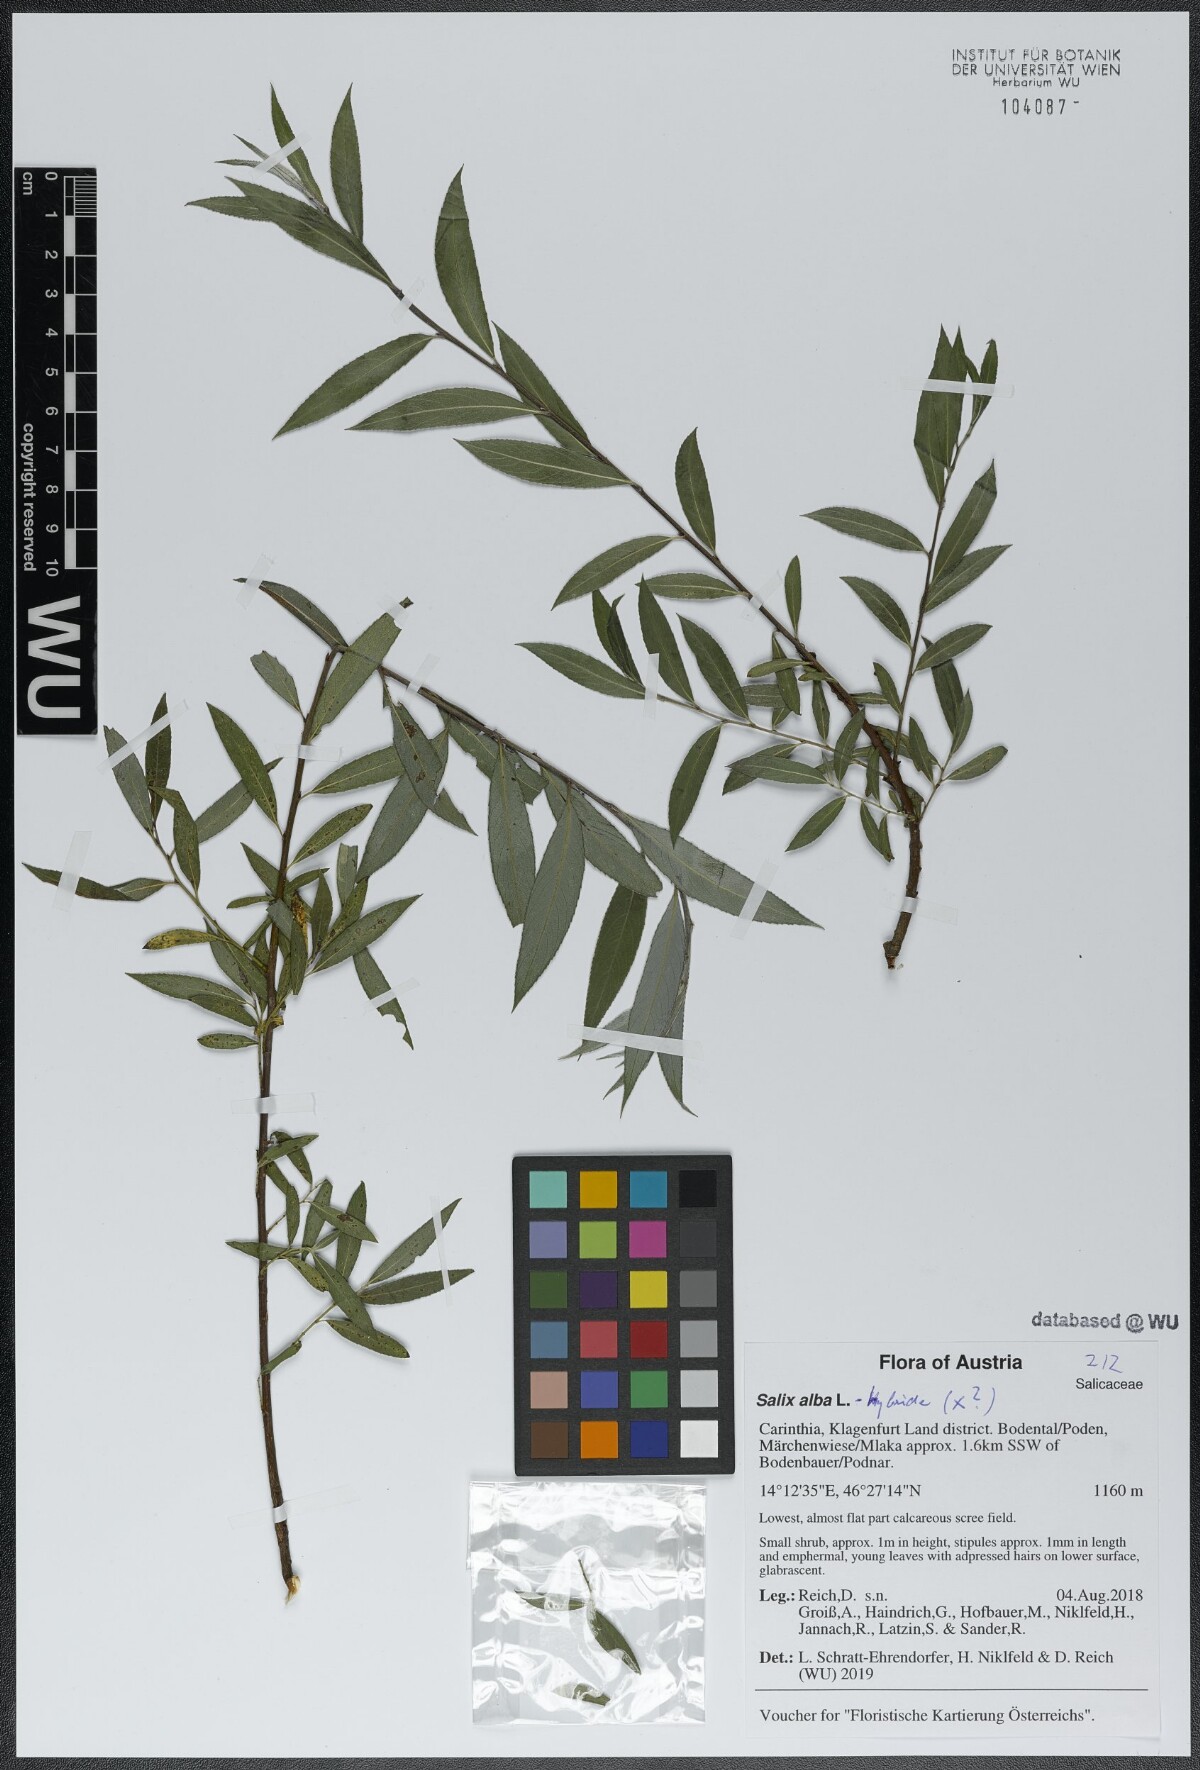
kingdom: Plantae
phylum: Tracheophyta
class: Magnoliopsida
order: Malpighiales
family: Salicaceae
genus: Salix
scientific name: Salix alba
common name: White willow
